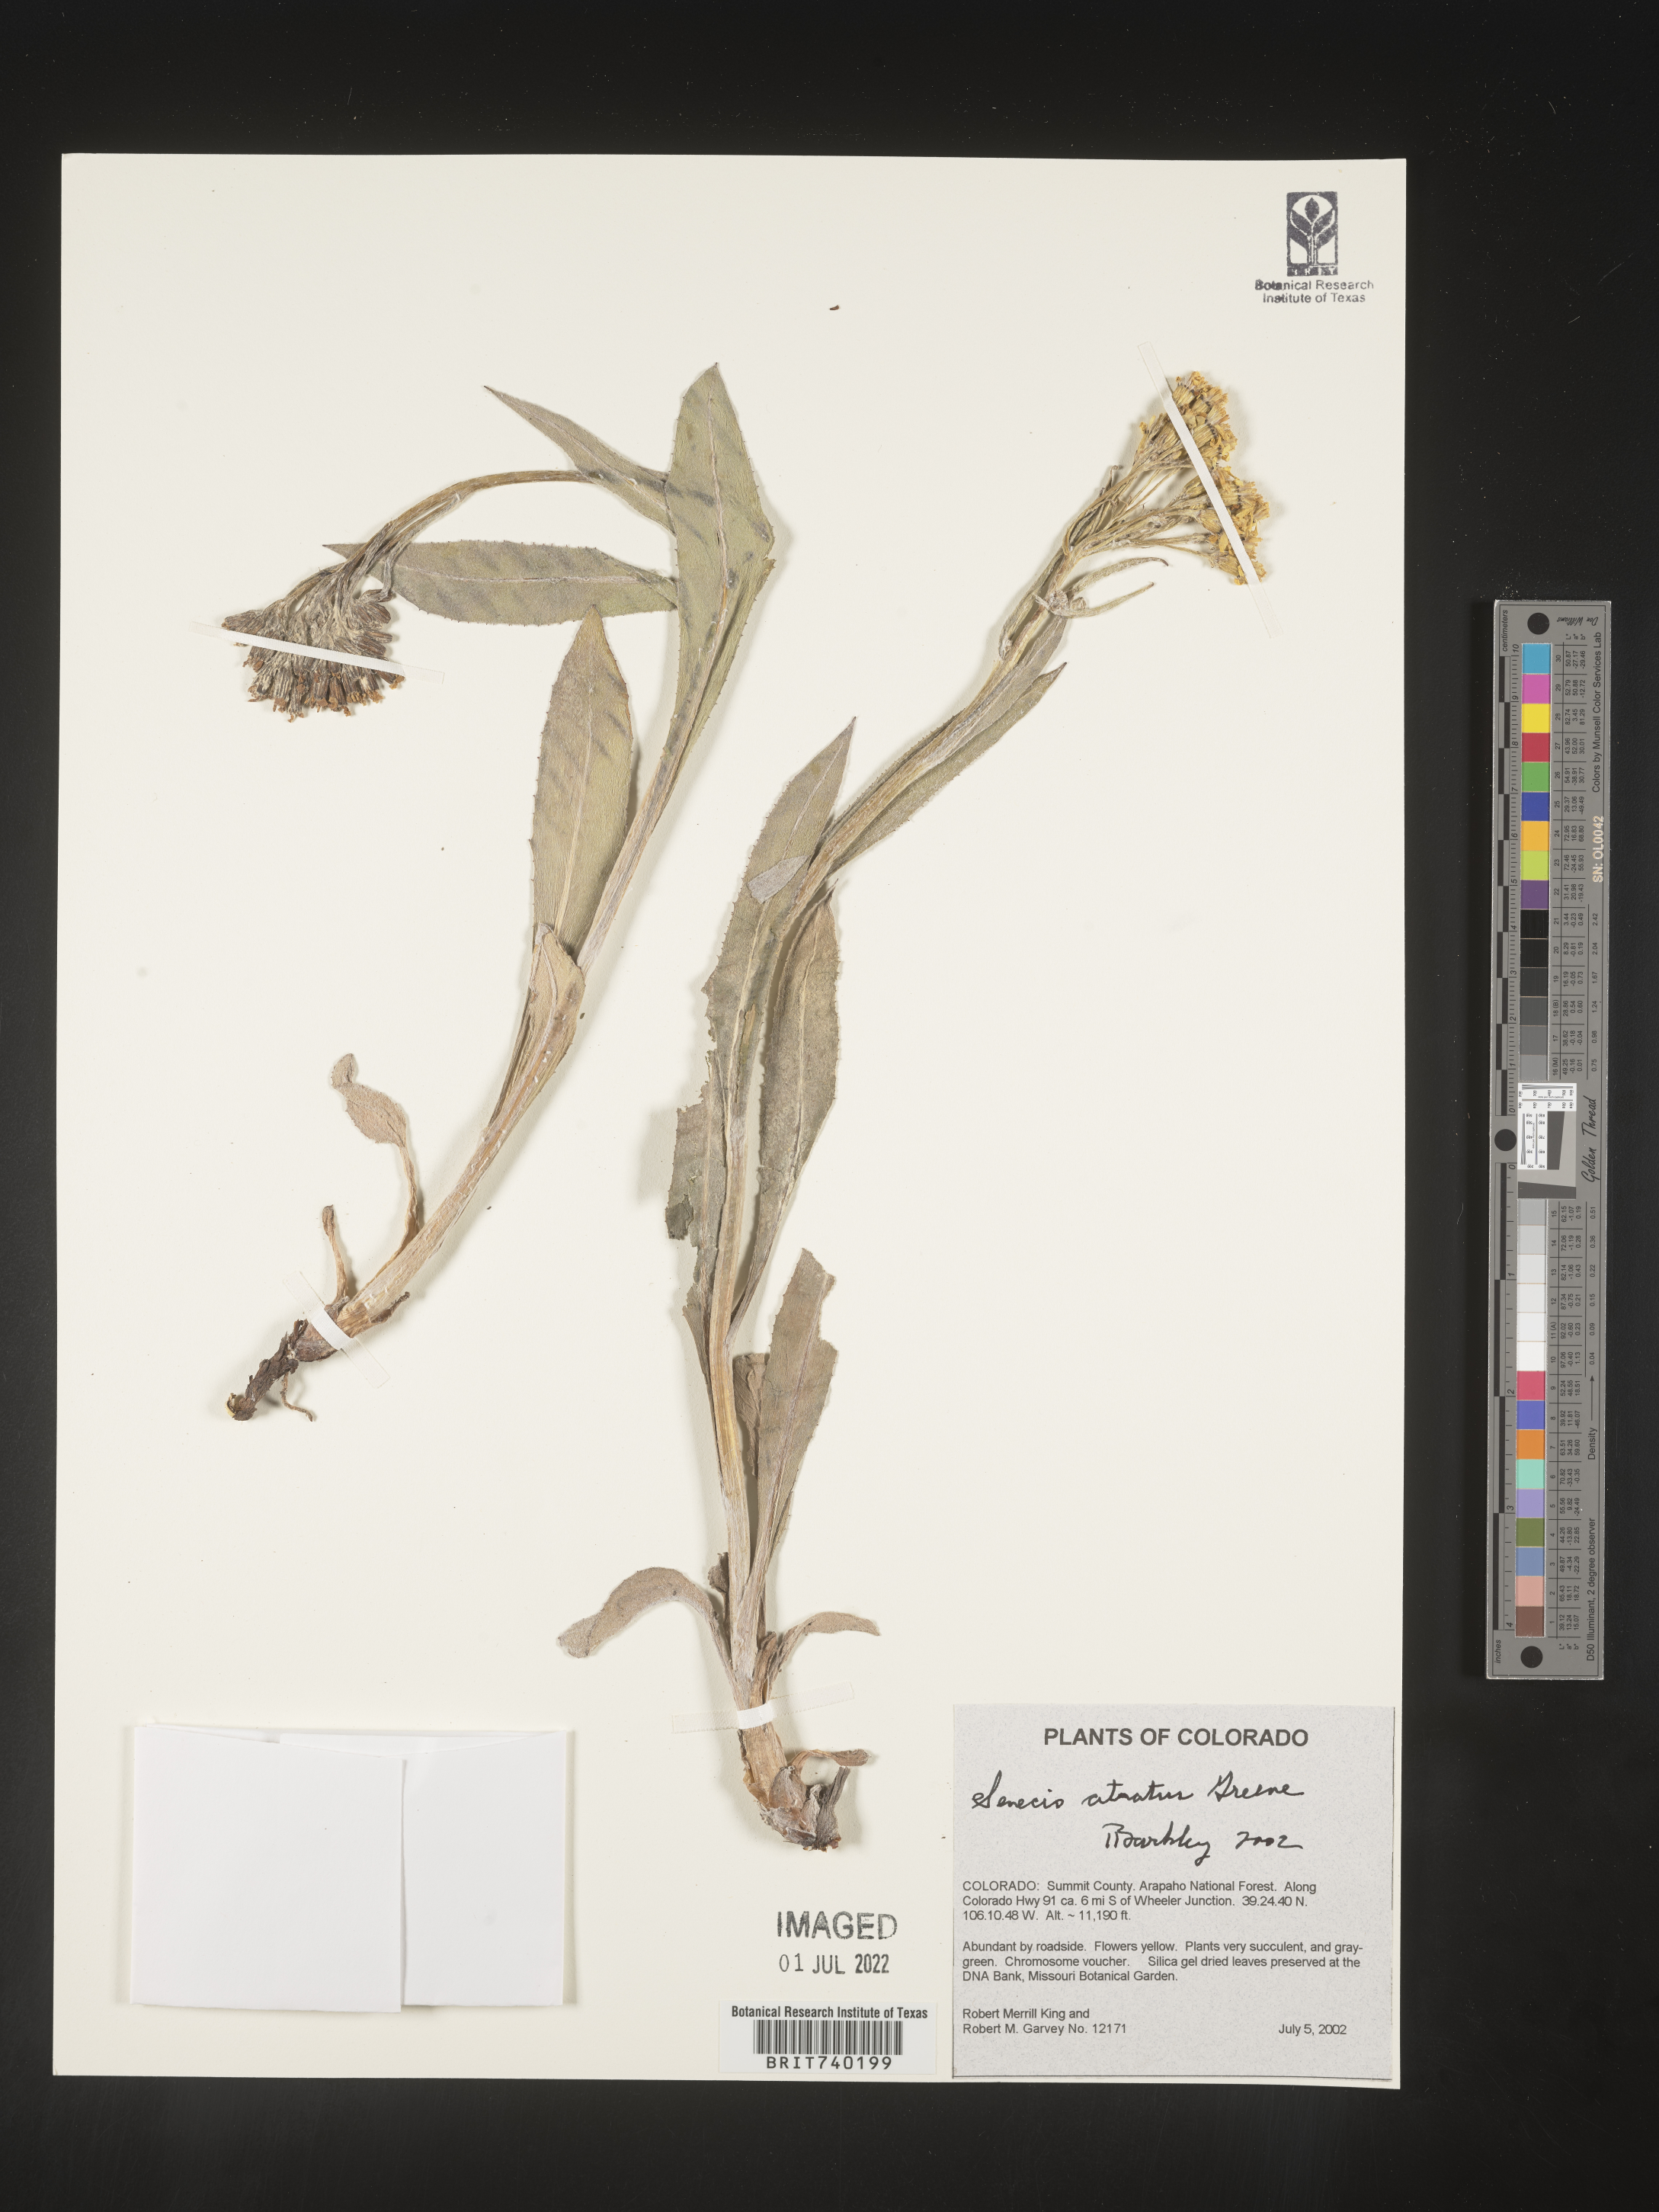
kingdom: Plantae
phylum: Tracheophyta
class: Magnoliopsida
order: Asterales
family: Asteraceae
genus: Senecio
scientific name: Senecio atratus
